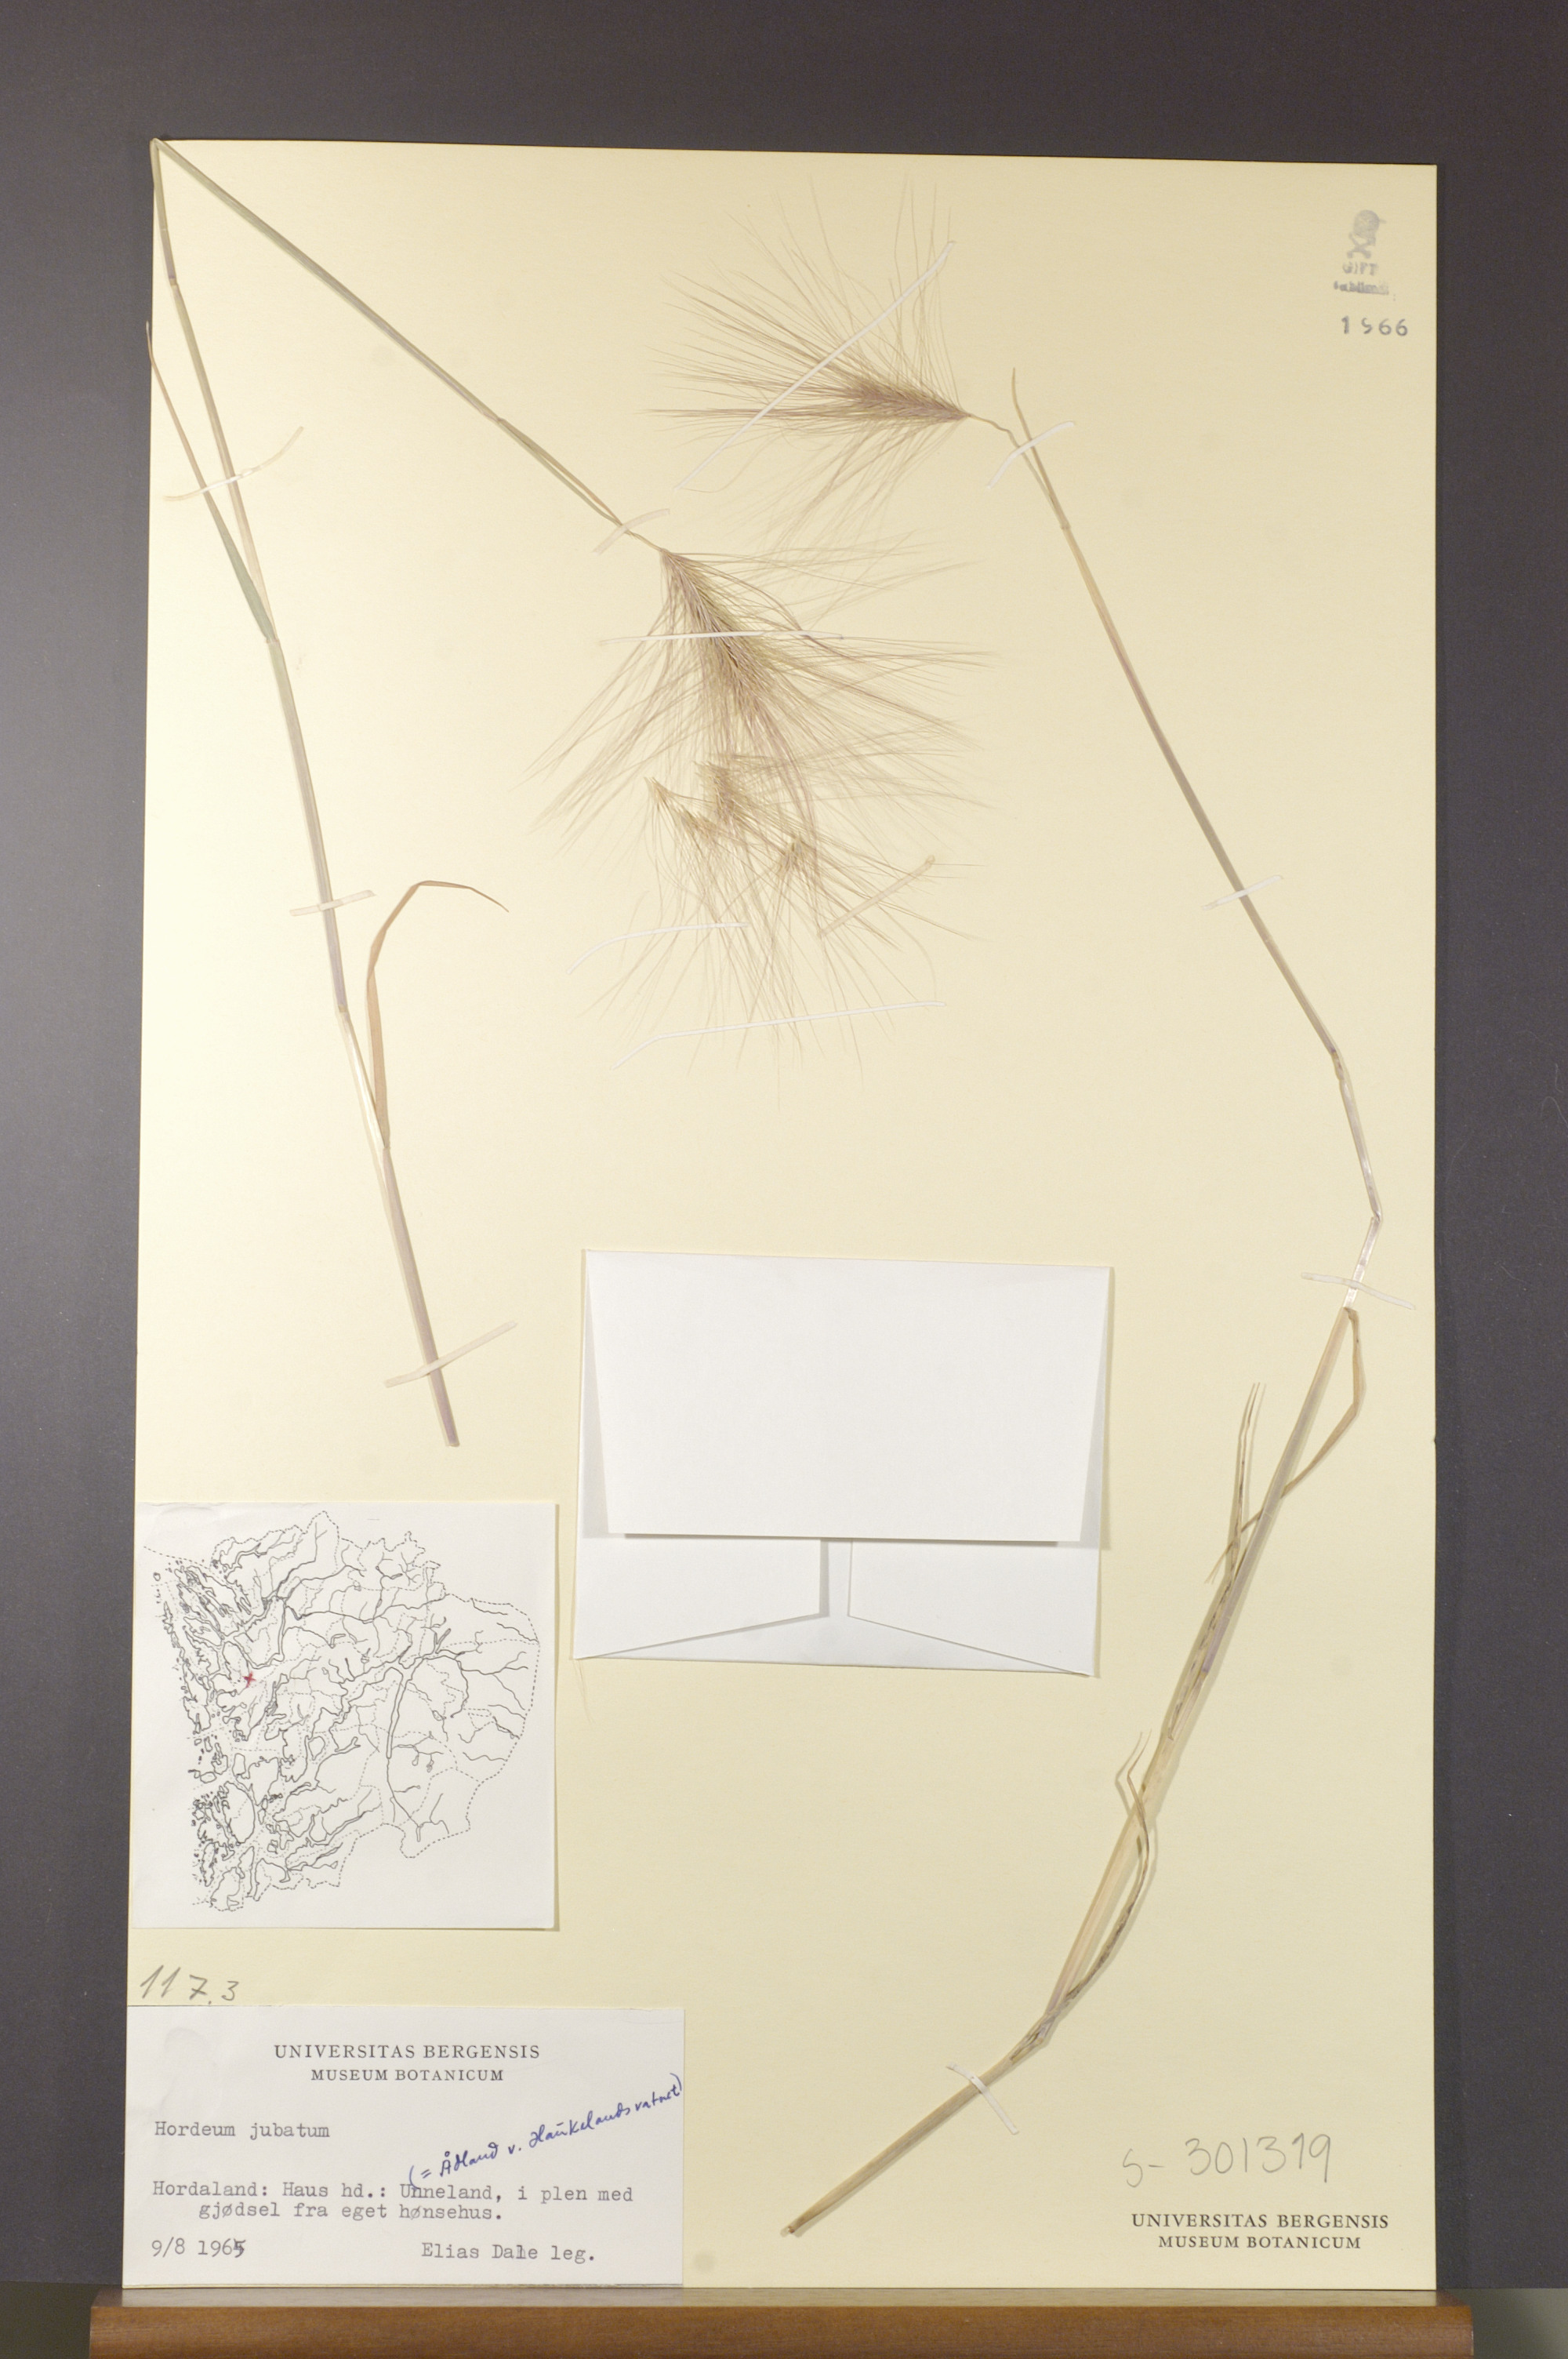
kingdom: Plantae
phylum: Tracheophyta
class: Liliopsida
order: Poales
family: Poaceae
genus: Hordeum
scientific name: Hordeum jubatum
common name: Foxtail barley
